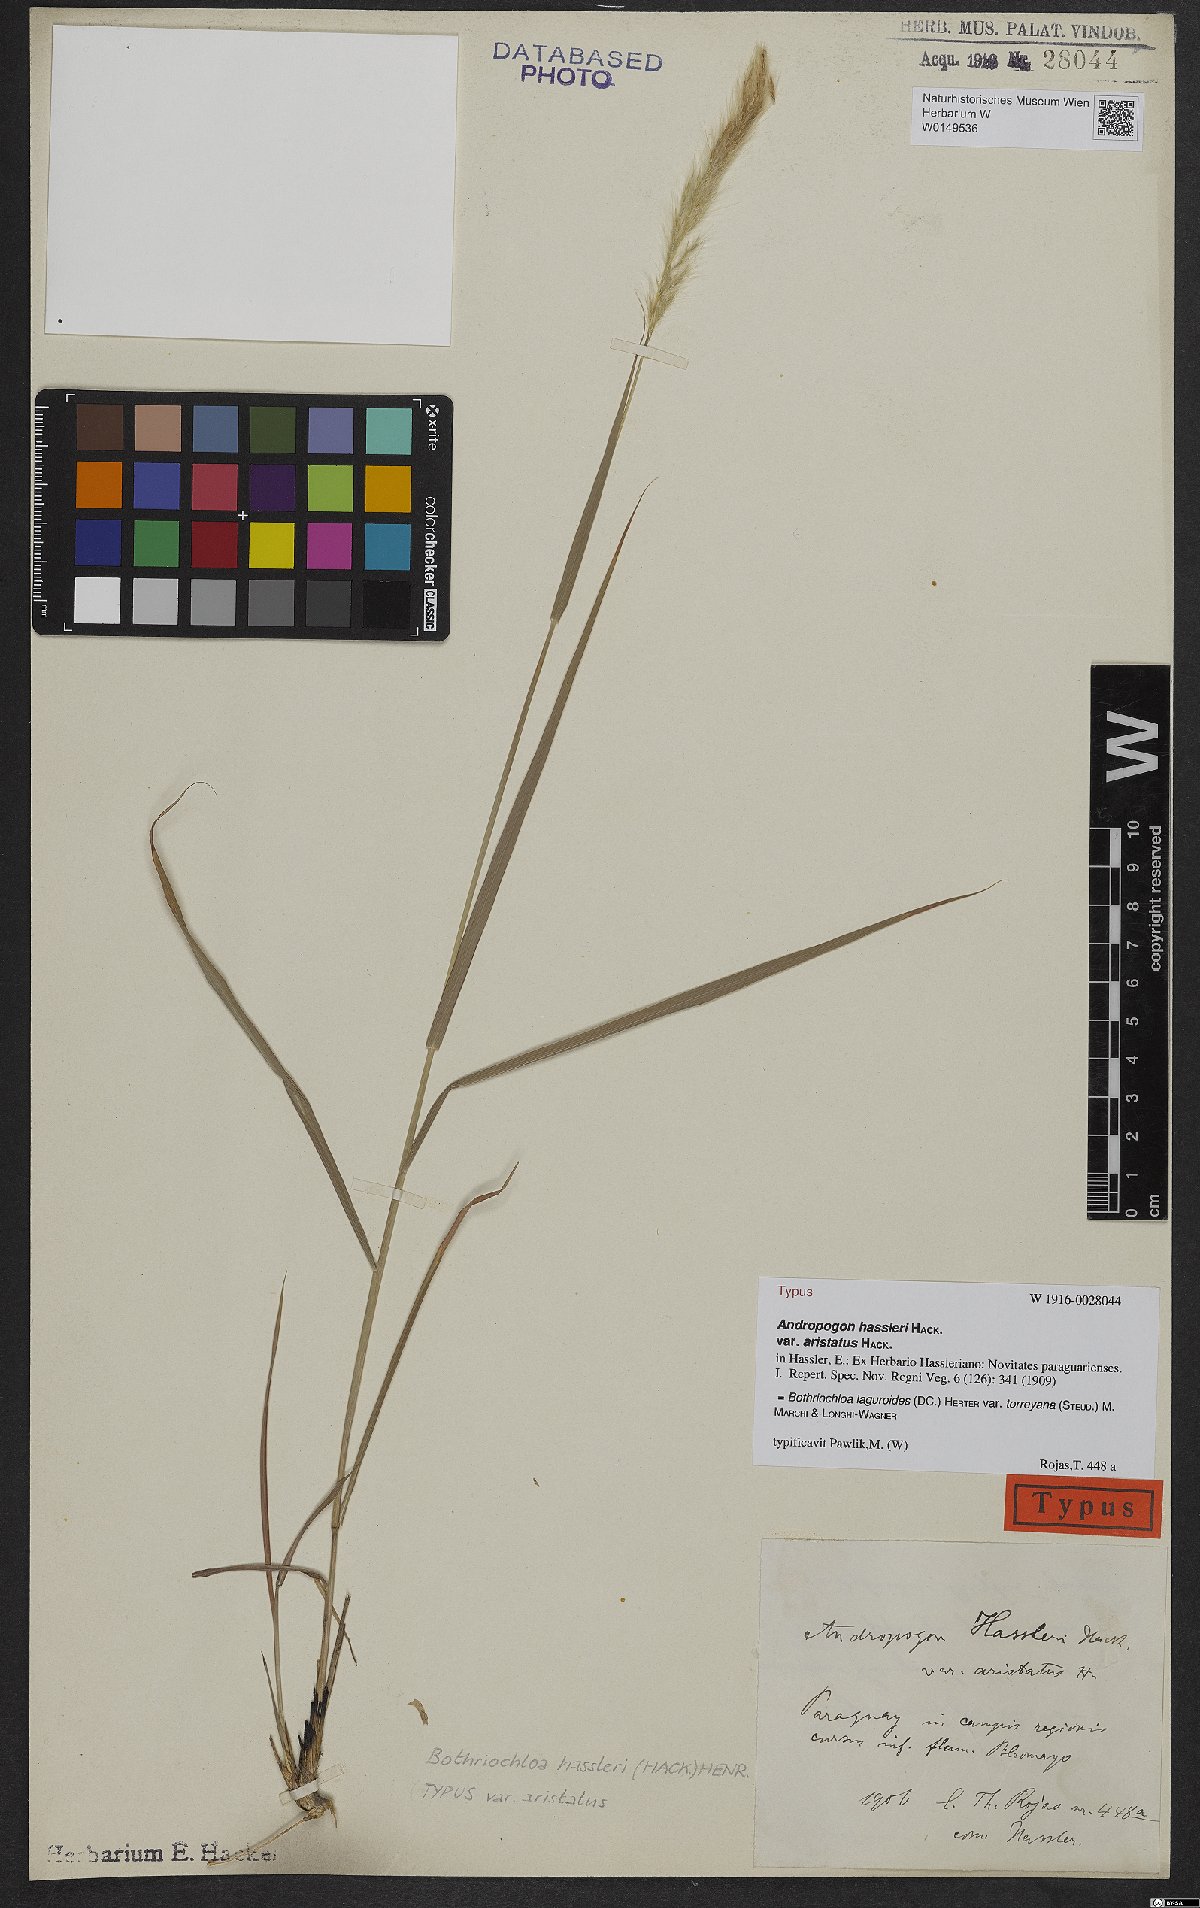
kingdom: Plantae
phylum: Tracheophyta
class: Liliopsida
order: Poales
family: Poaceae
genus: Bothriochloa
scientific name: Bothriochloa torreyana
